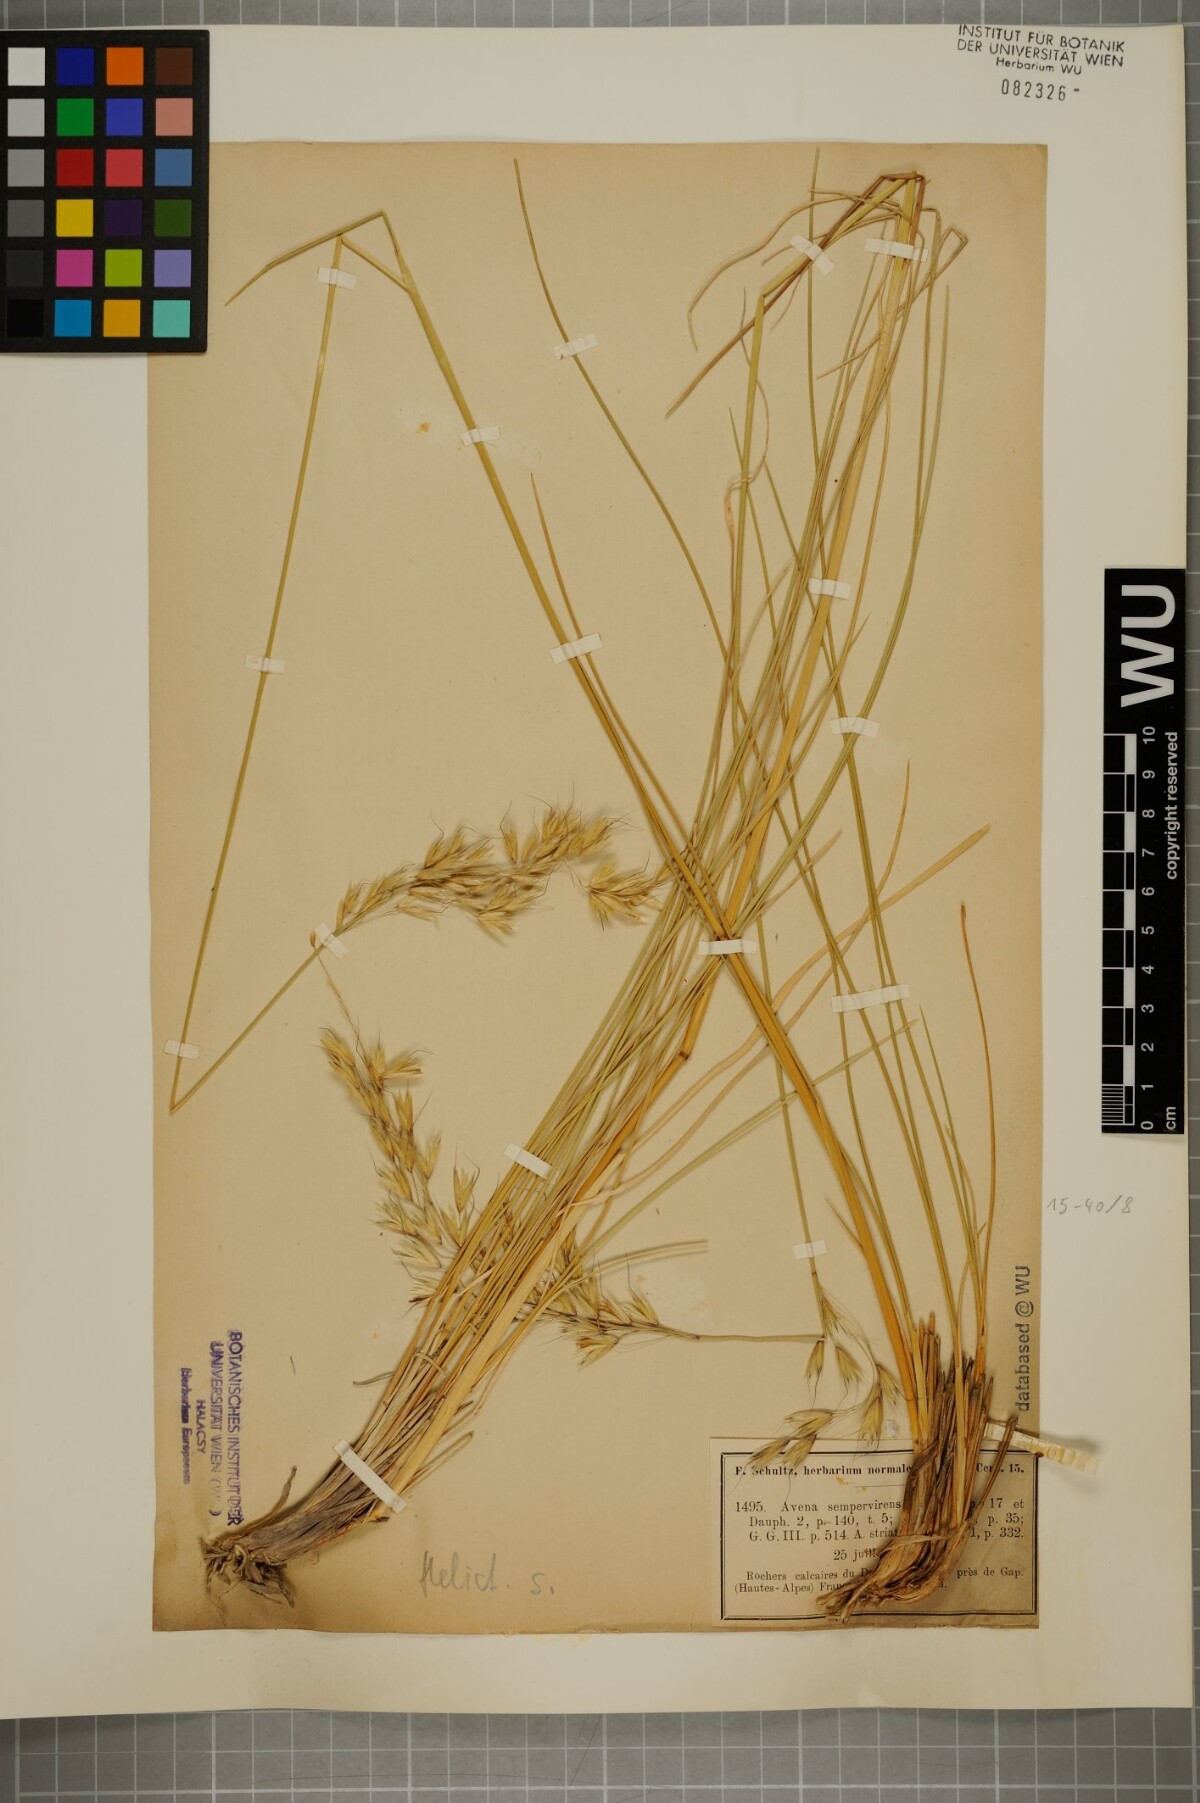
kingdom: Plantae
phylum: Tracheophyta
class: Liliopsida
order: Poales
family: Poaceae
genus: Helictotrichon
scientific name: Helictotrichon sempervirens
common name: Blue oat-grass
